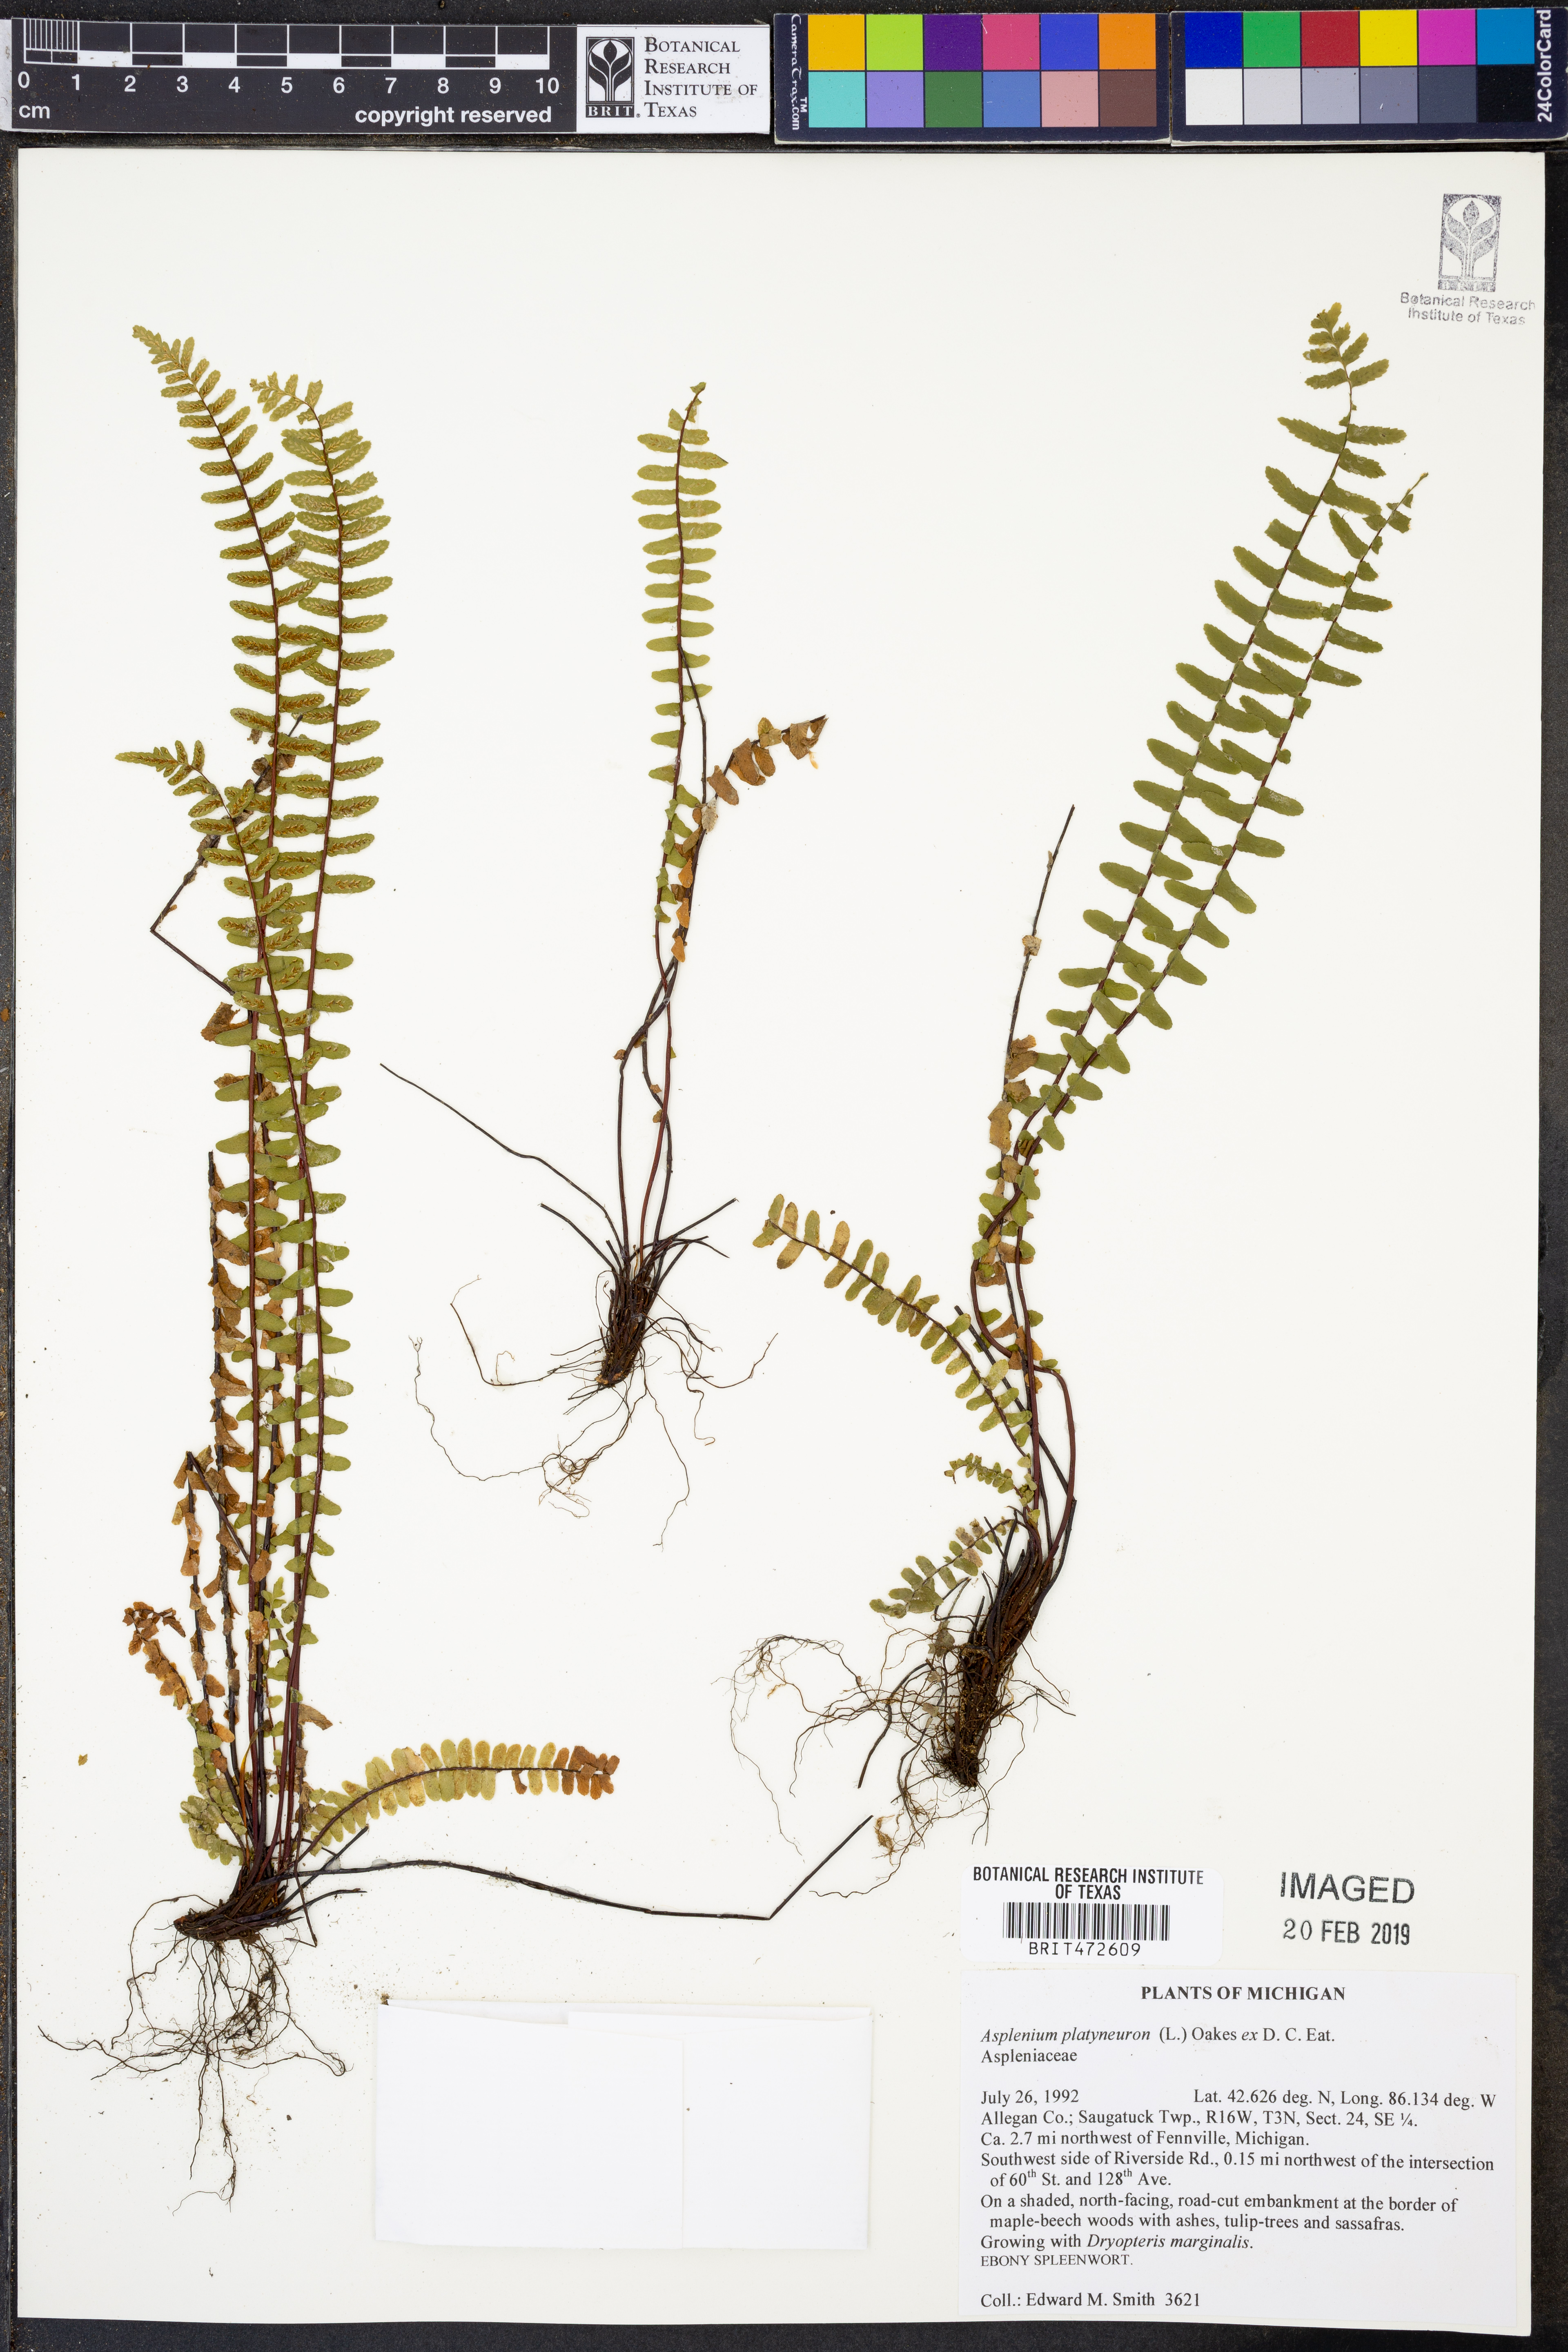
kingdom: Plantae
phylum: Tracheophyta
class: Polypodiopsida
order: Polypodiales
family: Aspleniaceae
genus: Asplenium
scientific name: Asplenium platyneuron
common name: Ebony spleenwort
